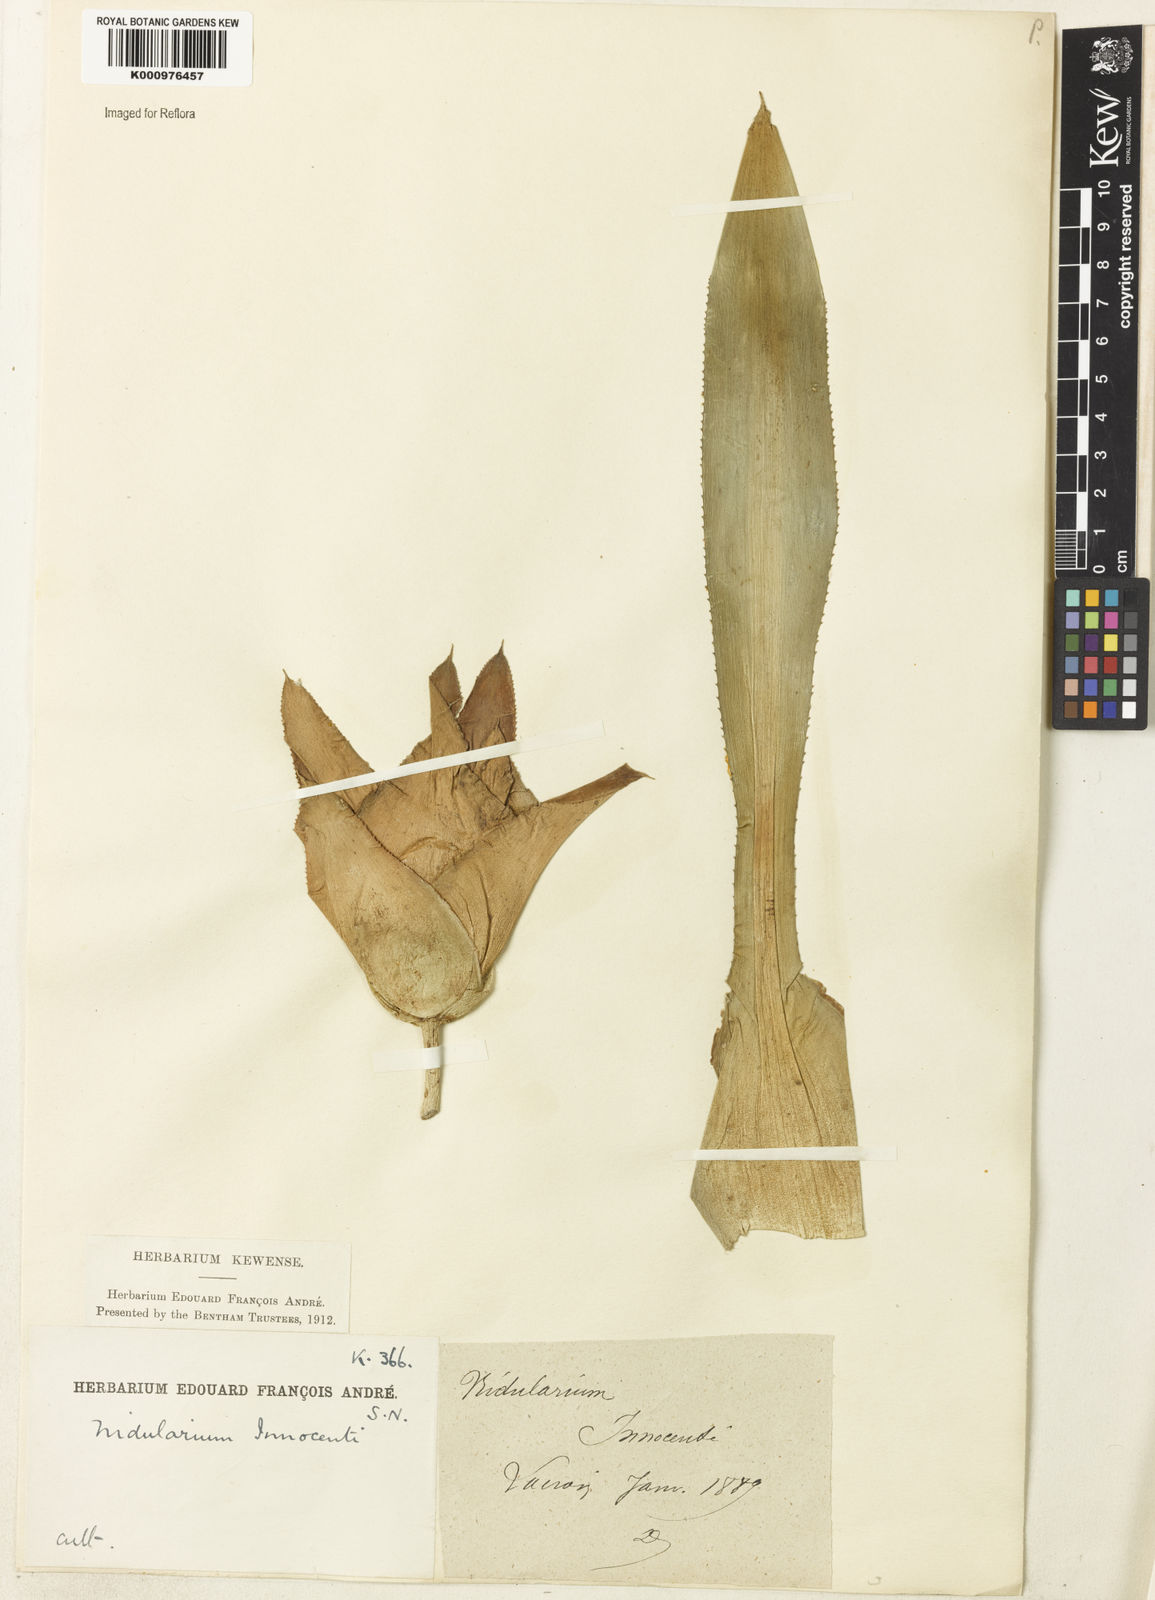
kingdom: Plantae
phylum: Tracheophyta
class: Liliopsida
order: Poales
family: Bromeliaceae
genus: Nidularium
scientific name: Nidularium innocentii
